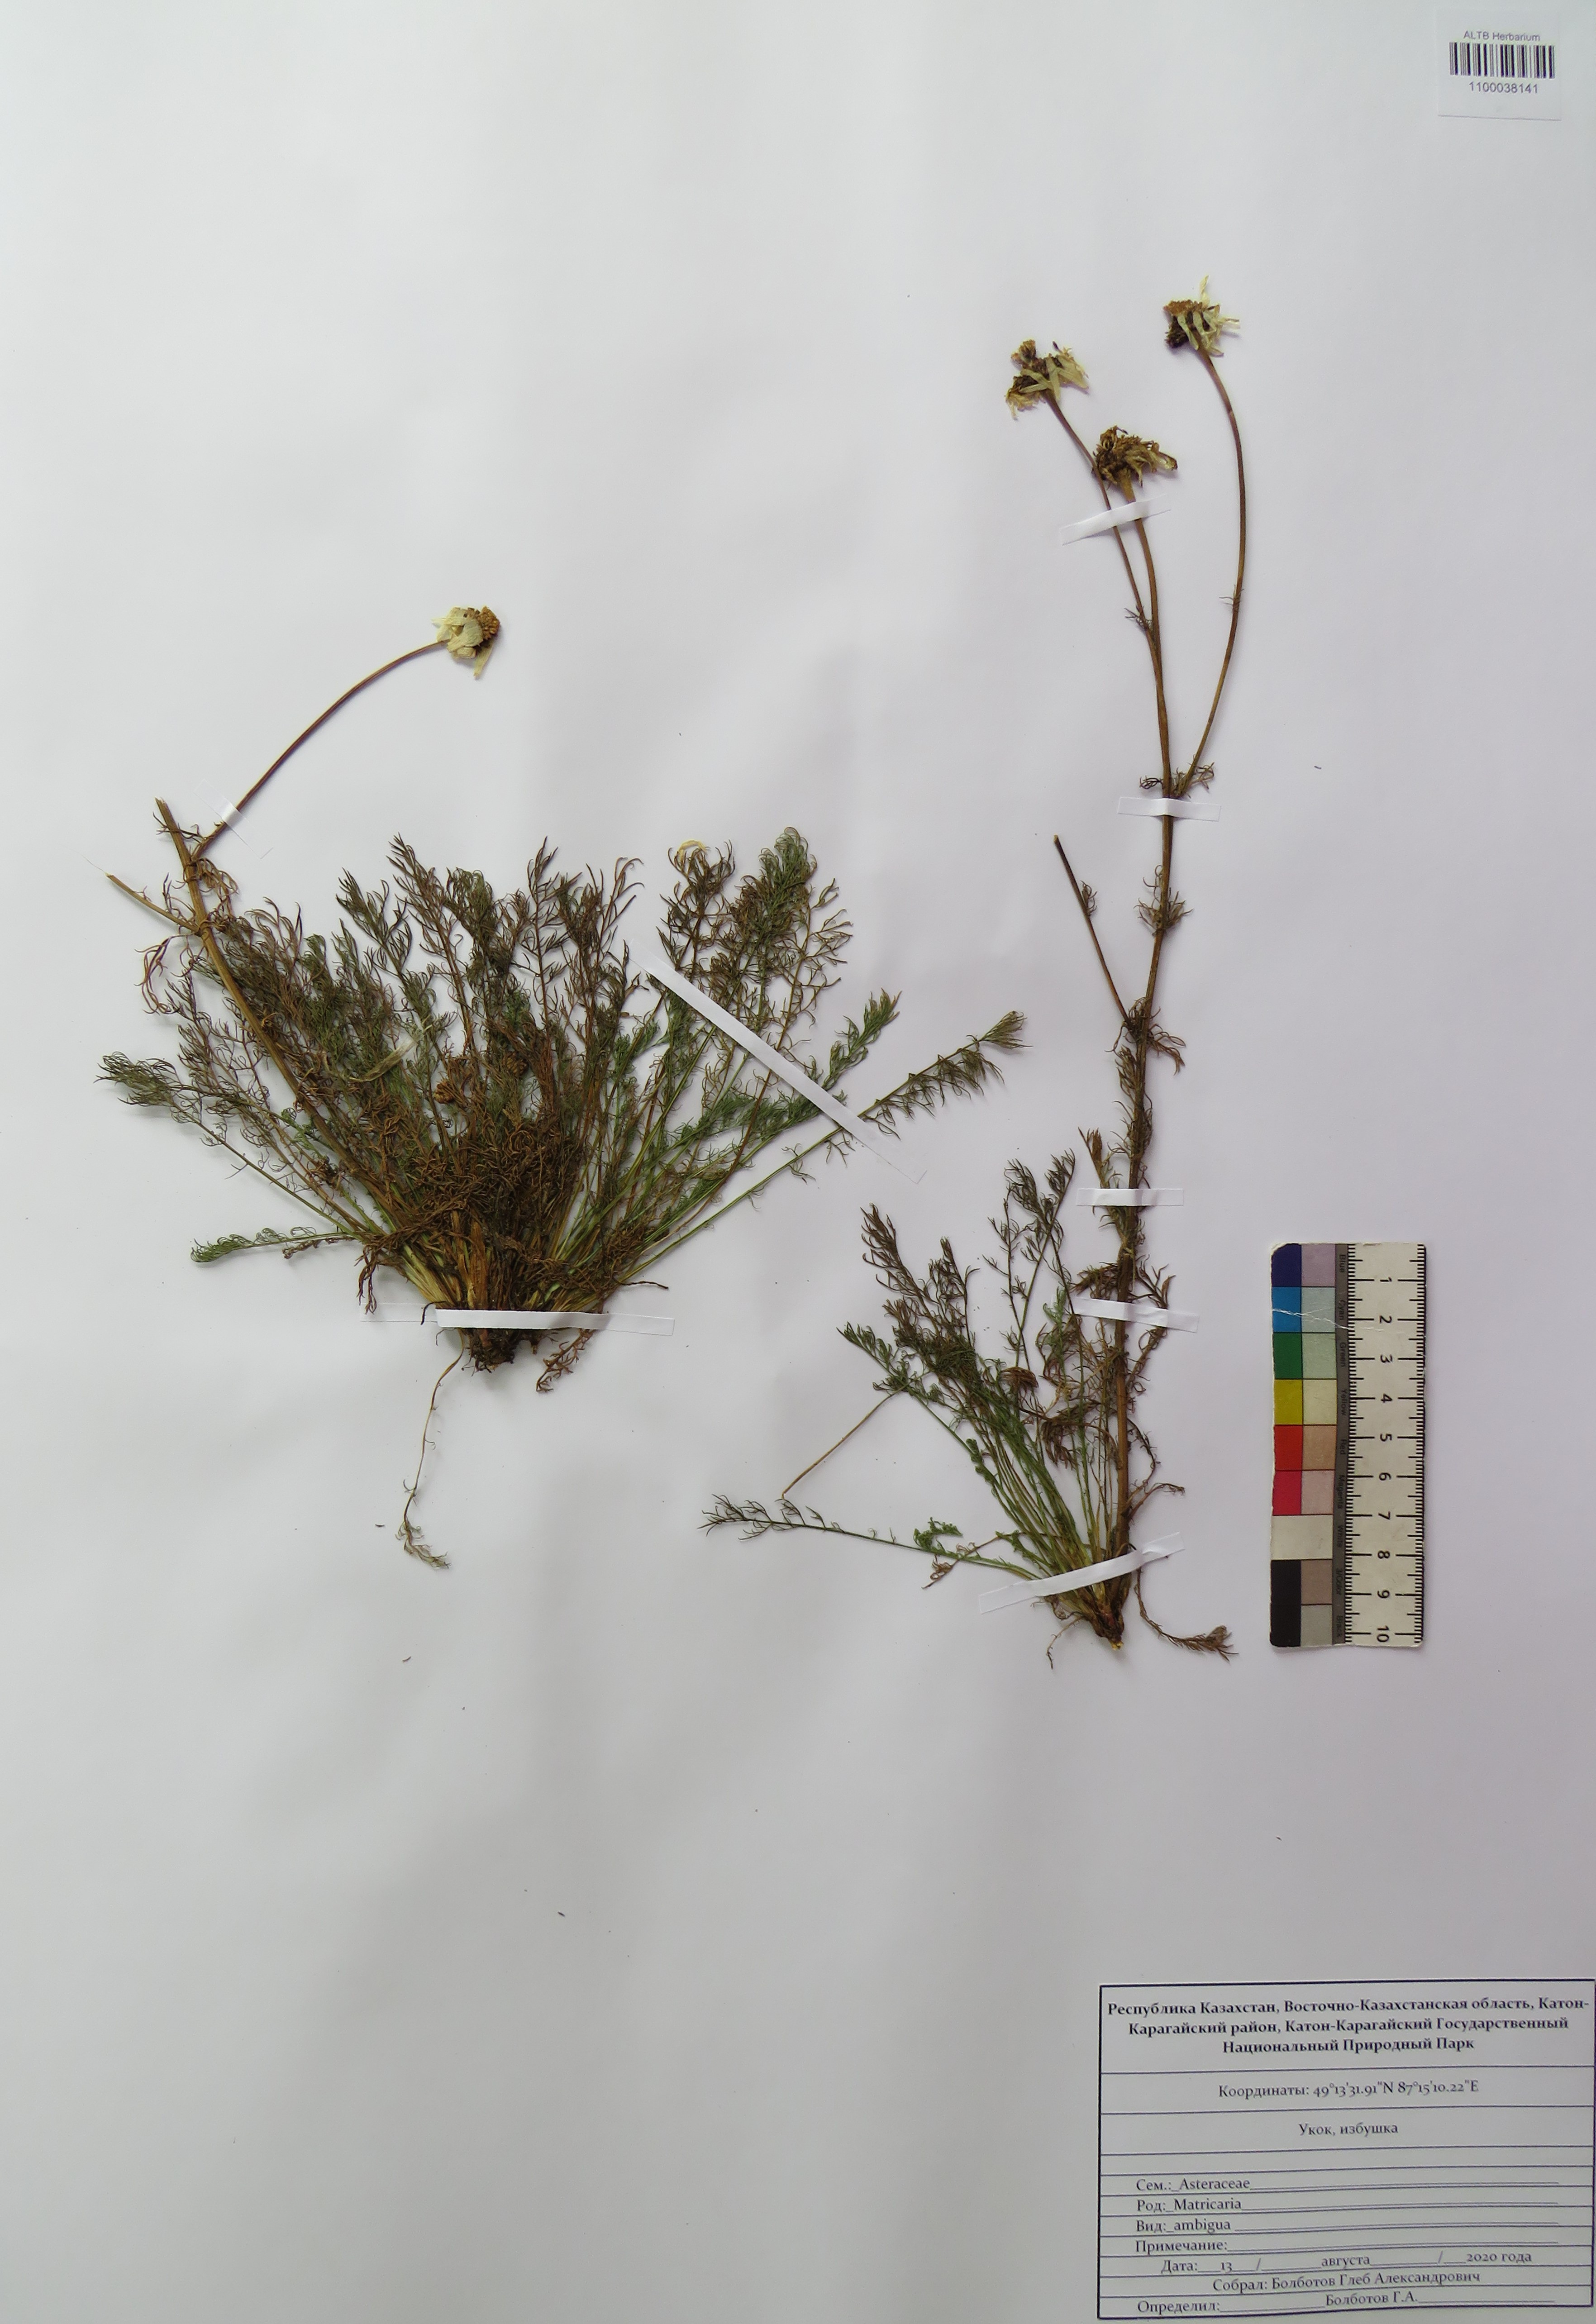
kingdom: Plantae
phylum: Tracheophyta
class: Magnoliopsida
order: Asterales
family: Asteraceae
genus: Tripleurospermum
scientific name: Tripleurospermum ambiguum
